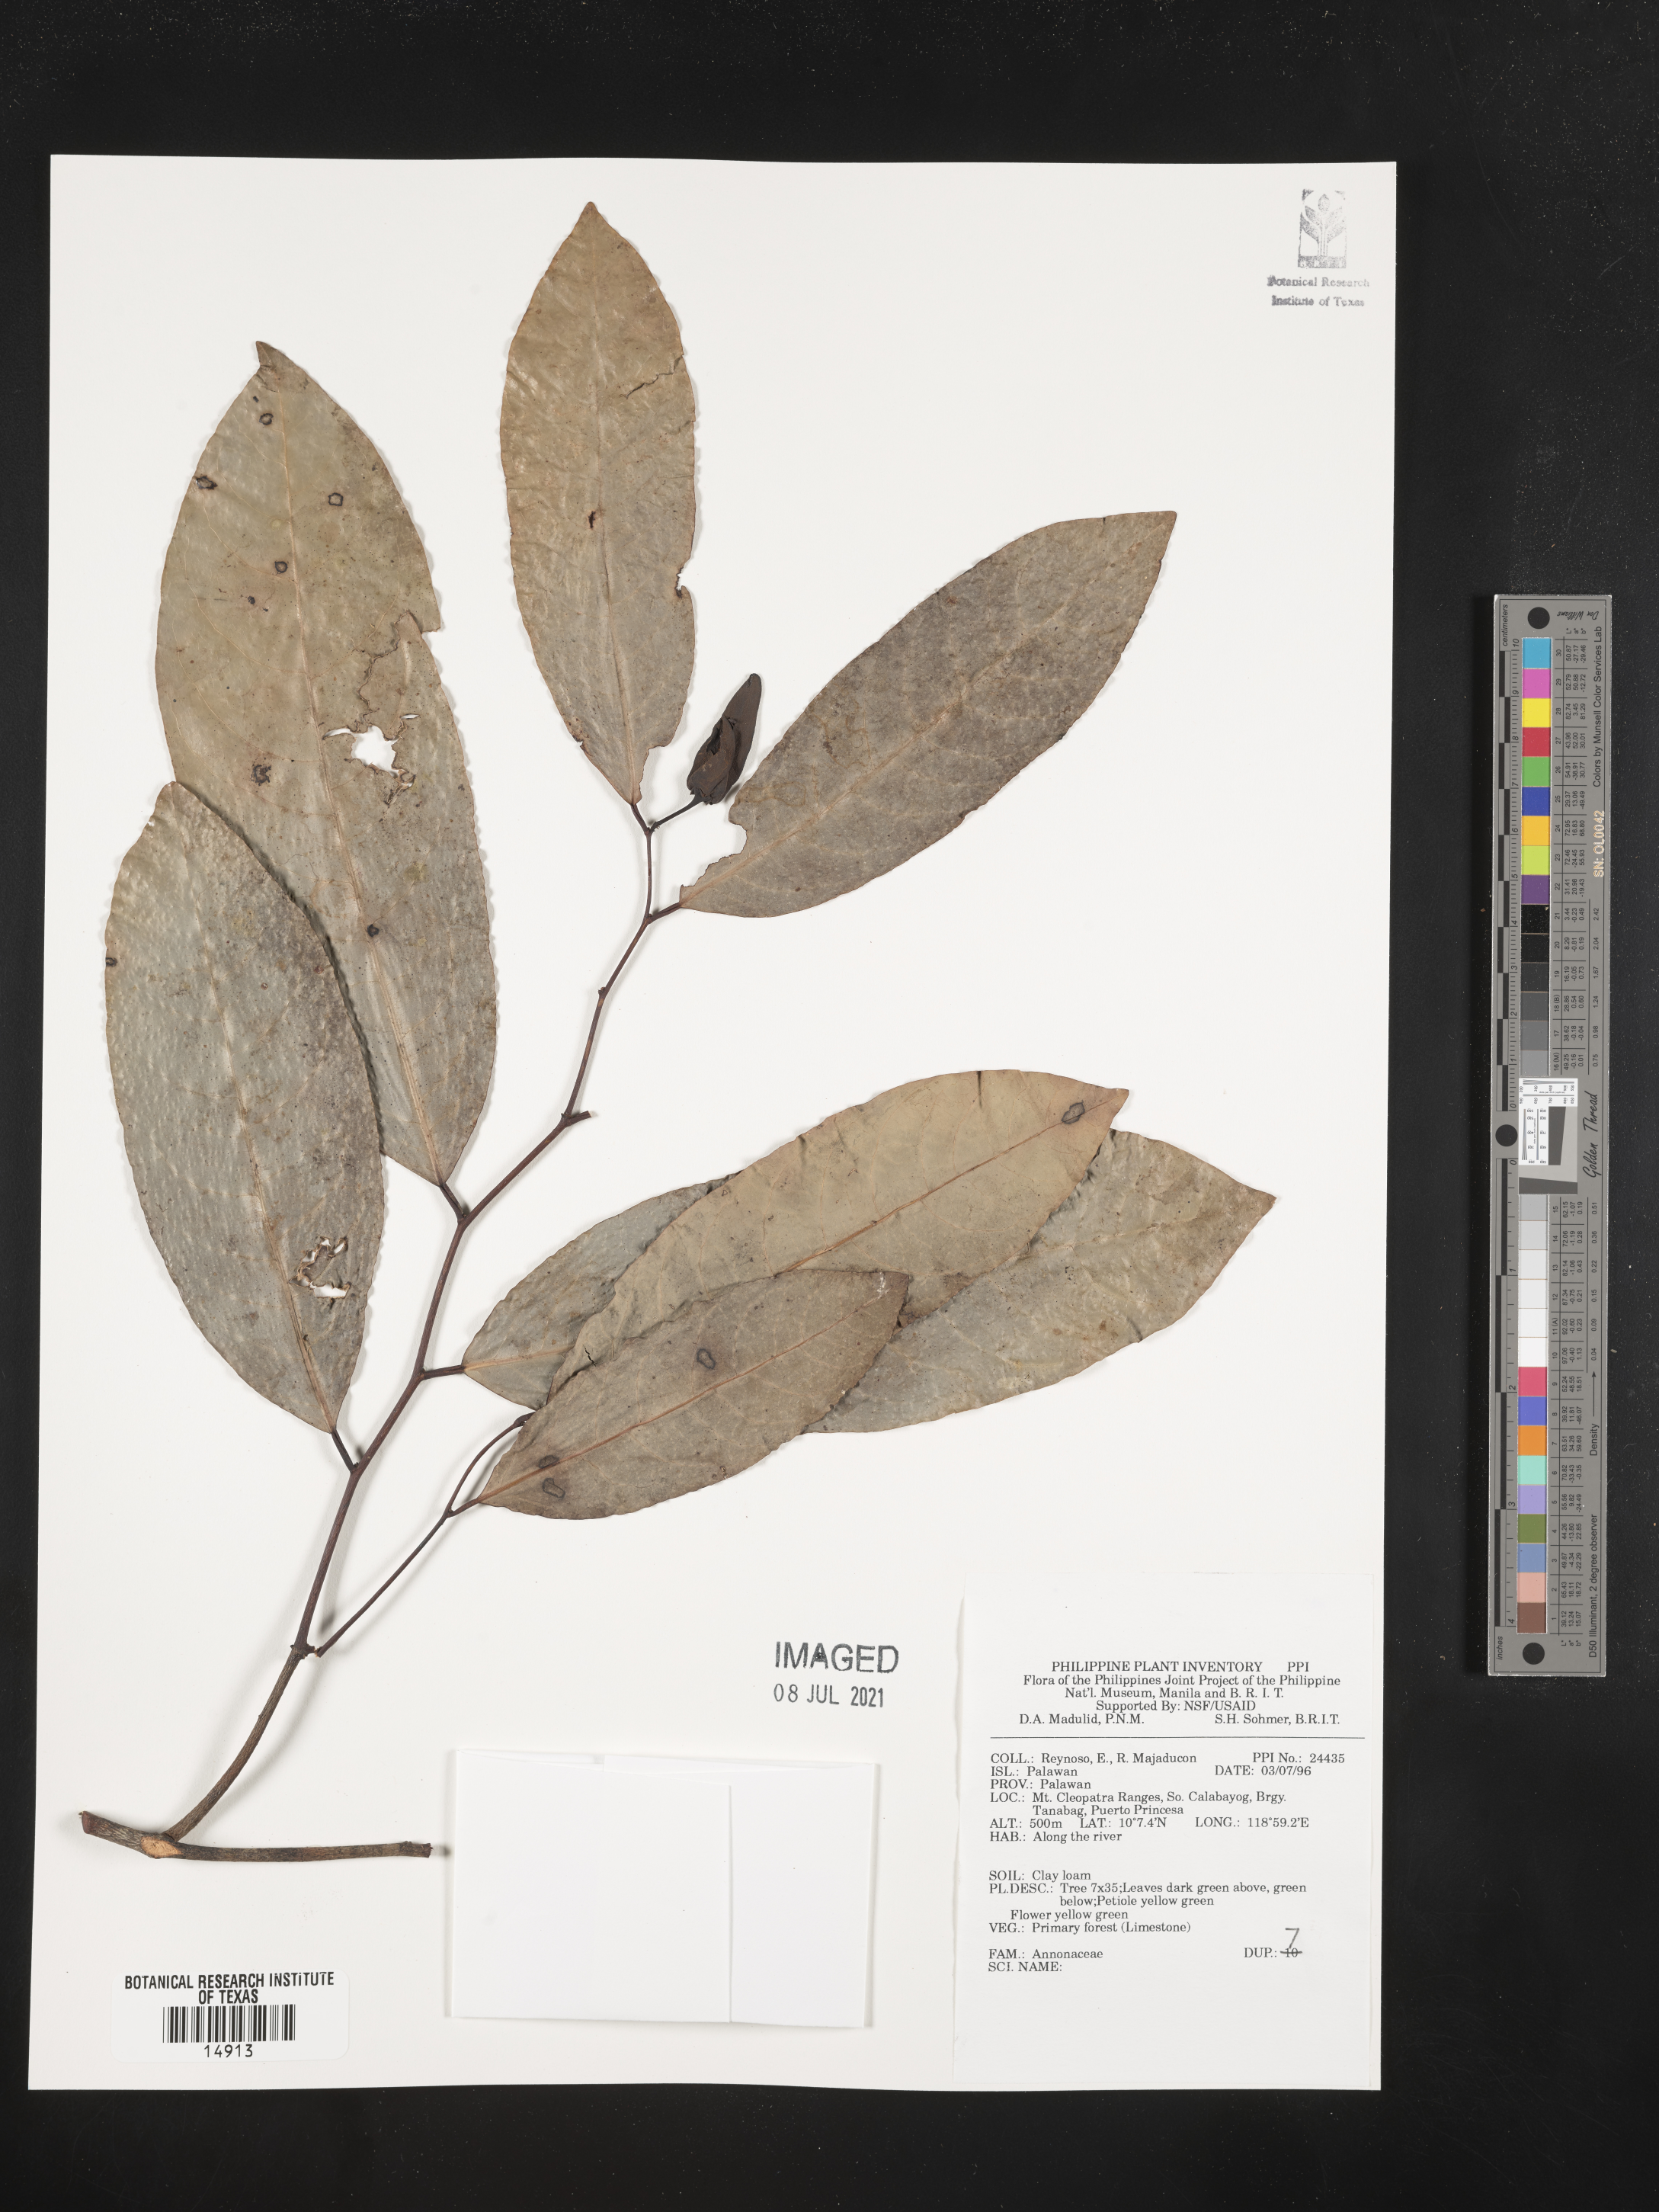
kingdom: Plantae
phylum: Tracheophyta
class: Magnoliopsida
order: Magnoliales
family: Annonaceae
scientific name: Annonaceae
